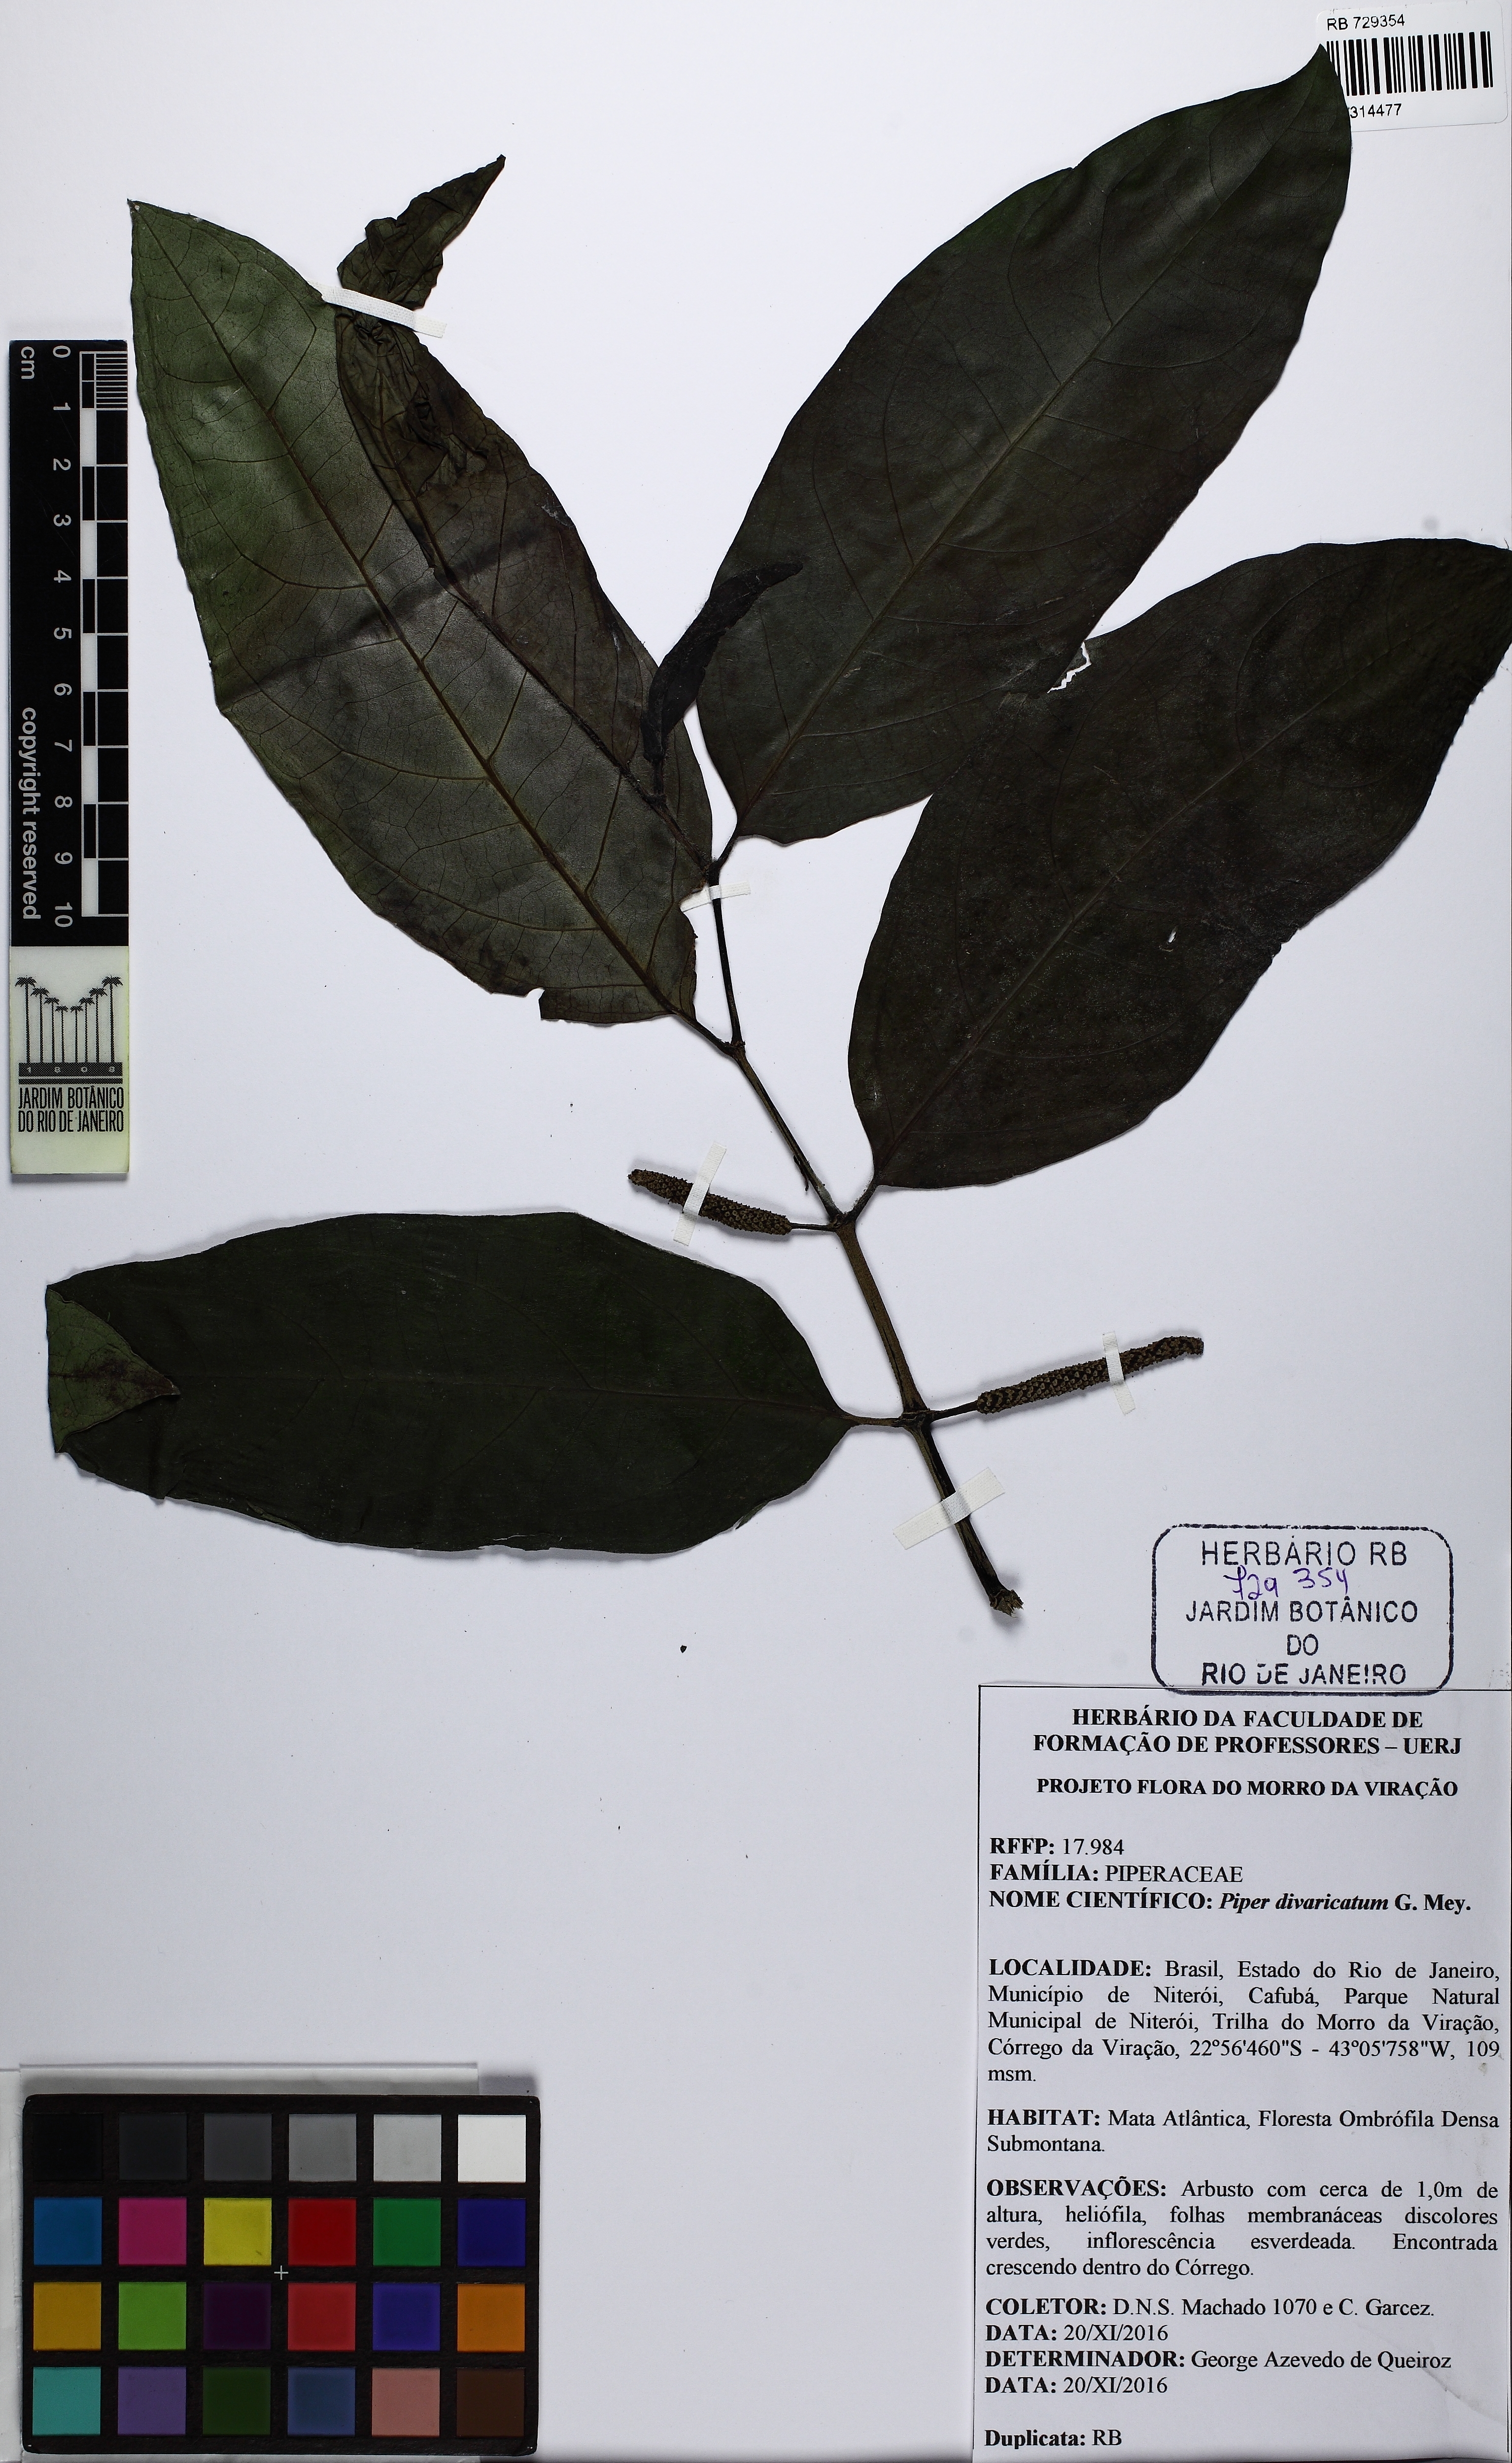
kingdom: Plantae
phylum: Tracheophyta
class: Magnoliopsida
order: Piperales
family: Piperaceae
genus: Piper
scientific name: Piper divaricatum
